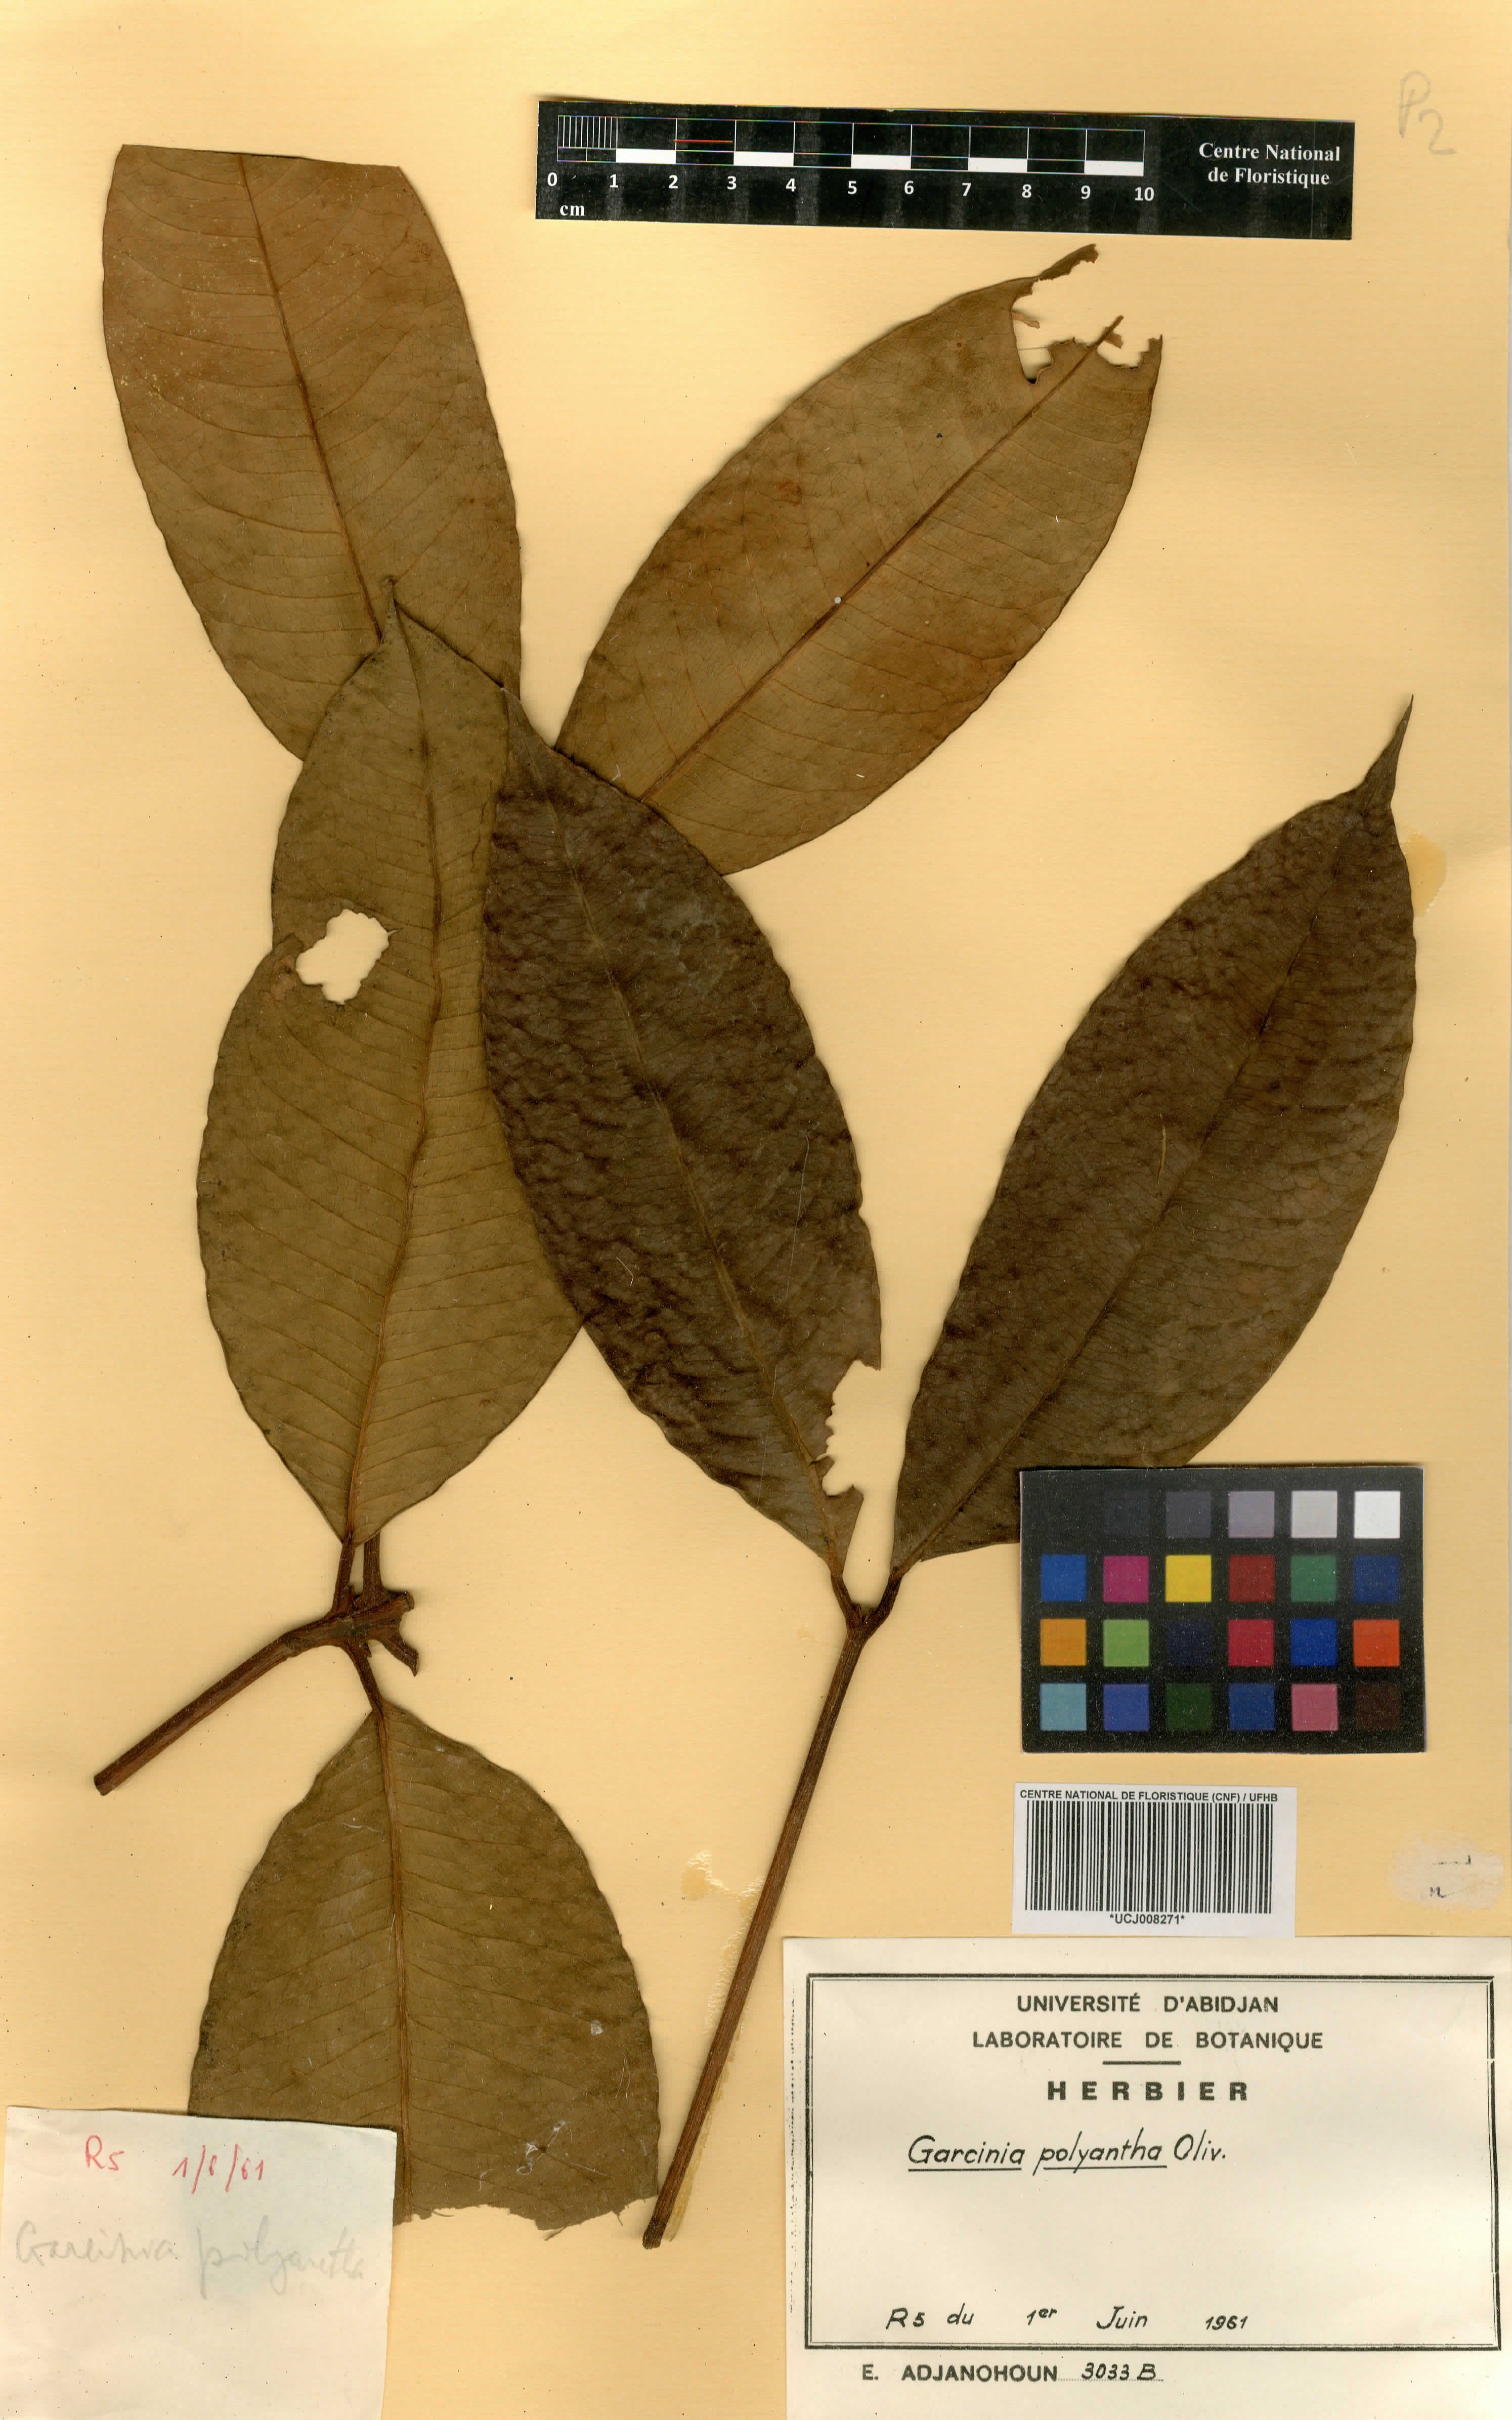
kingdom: Plantae
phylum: Tracheophyta
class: Magnoliopsida
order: Malpighiales
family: Clusiaceae
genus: Garcinia
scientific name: Garcinia smeathmannii
